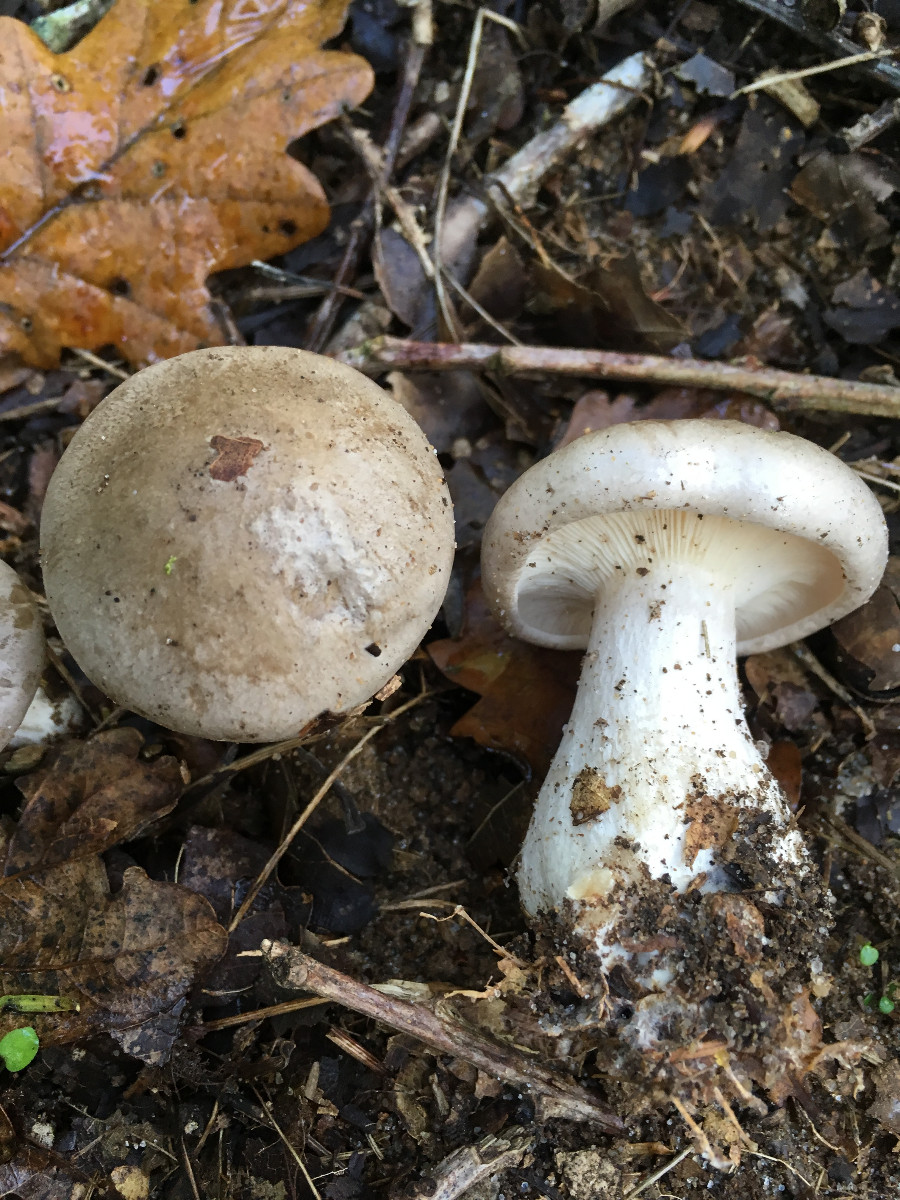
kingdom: Fungi
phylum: Basidiomycota
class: Agaricomycetes
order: Agaricales
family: Tricholomataceae
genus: Clitocybe
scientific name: Clitocybe nebularis
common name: tåge-tragthat
